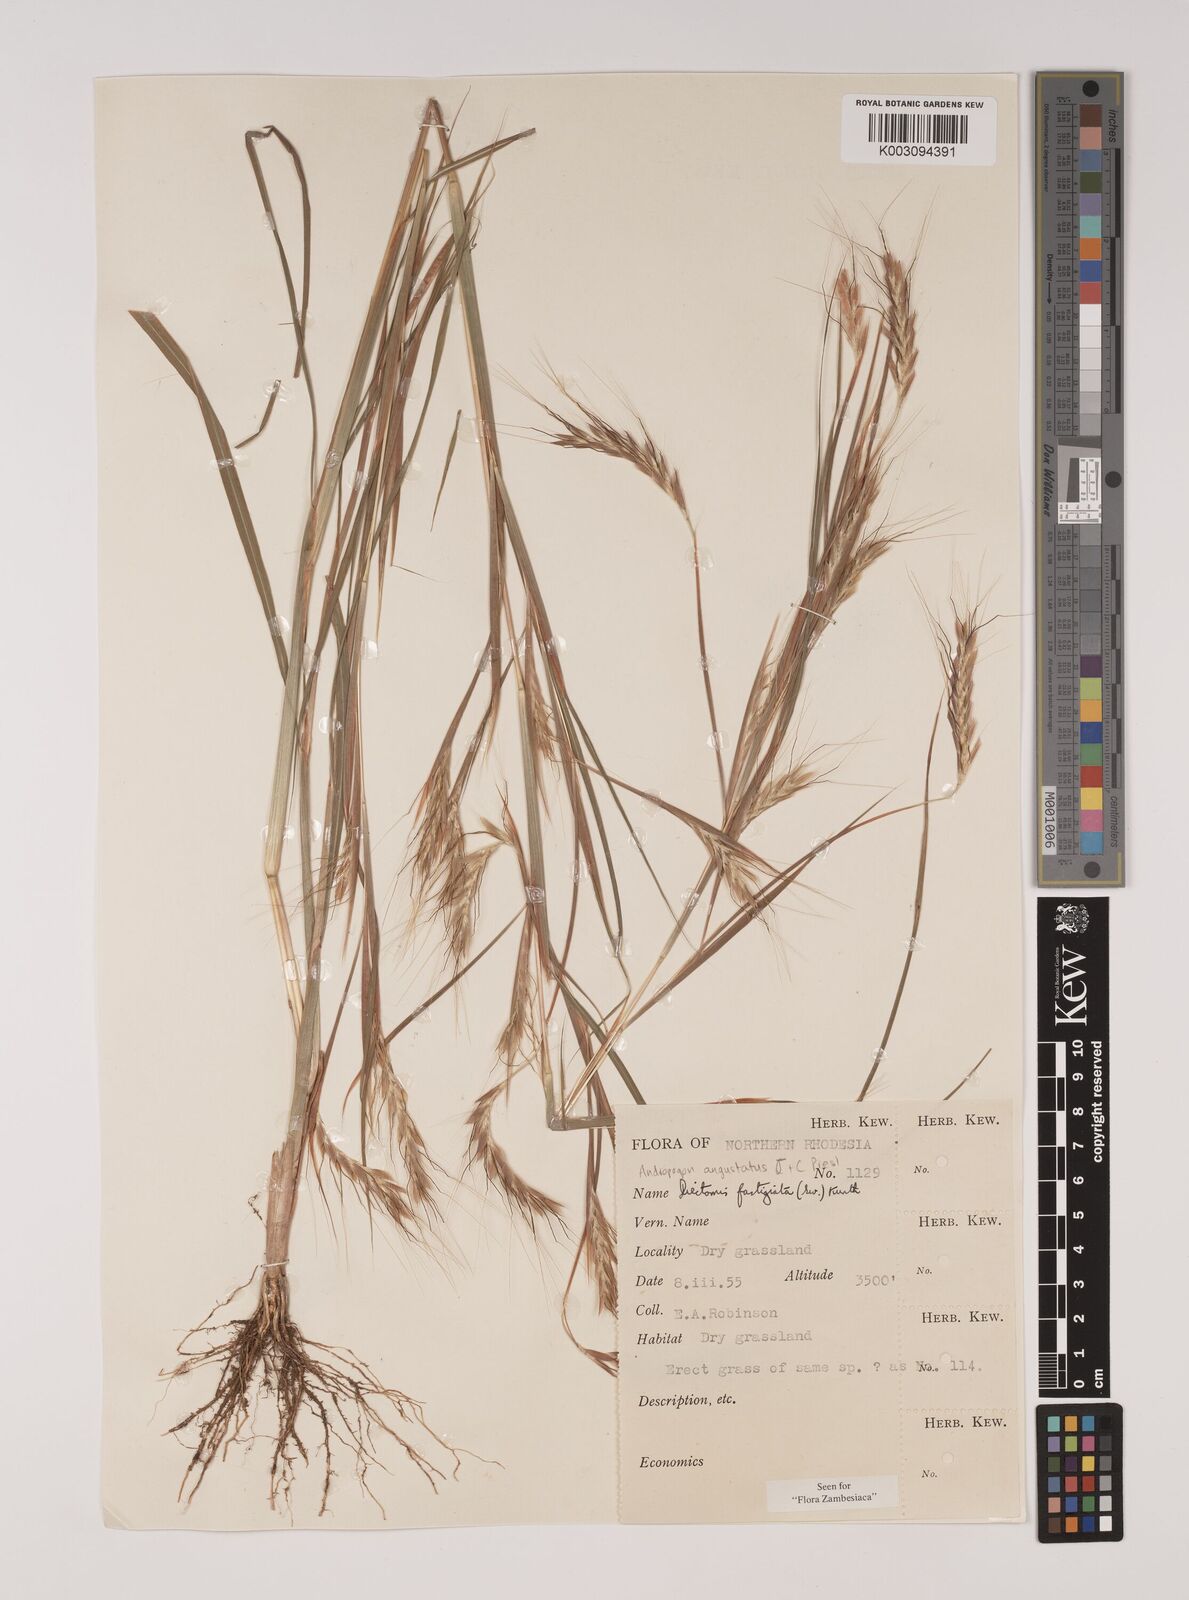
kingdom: Plantae
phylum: Tracheophyta
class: Liliopsida
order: Poales
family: Poaceae
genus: Diectomis
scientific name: Diectomis fastigiata
